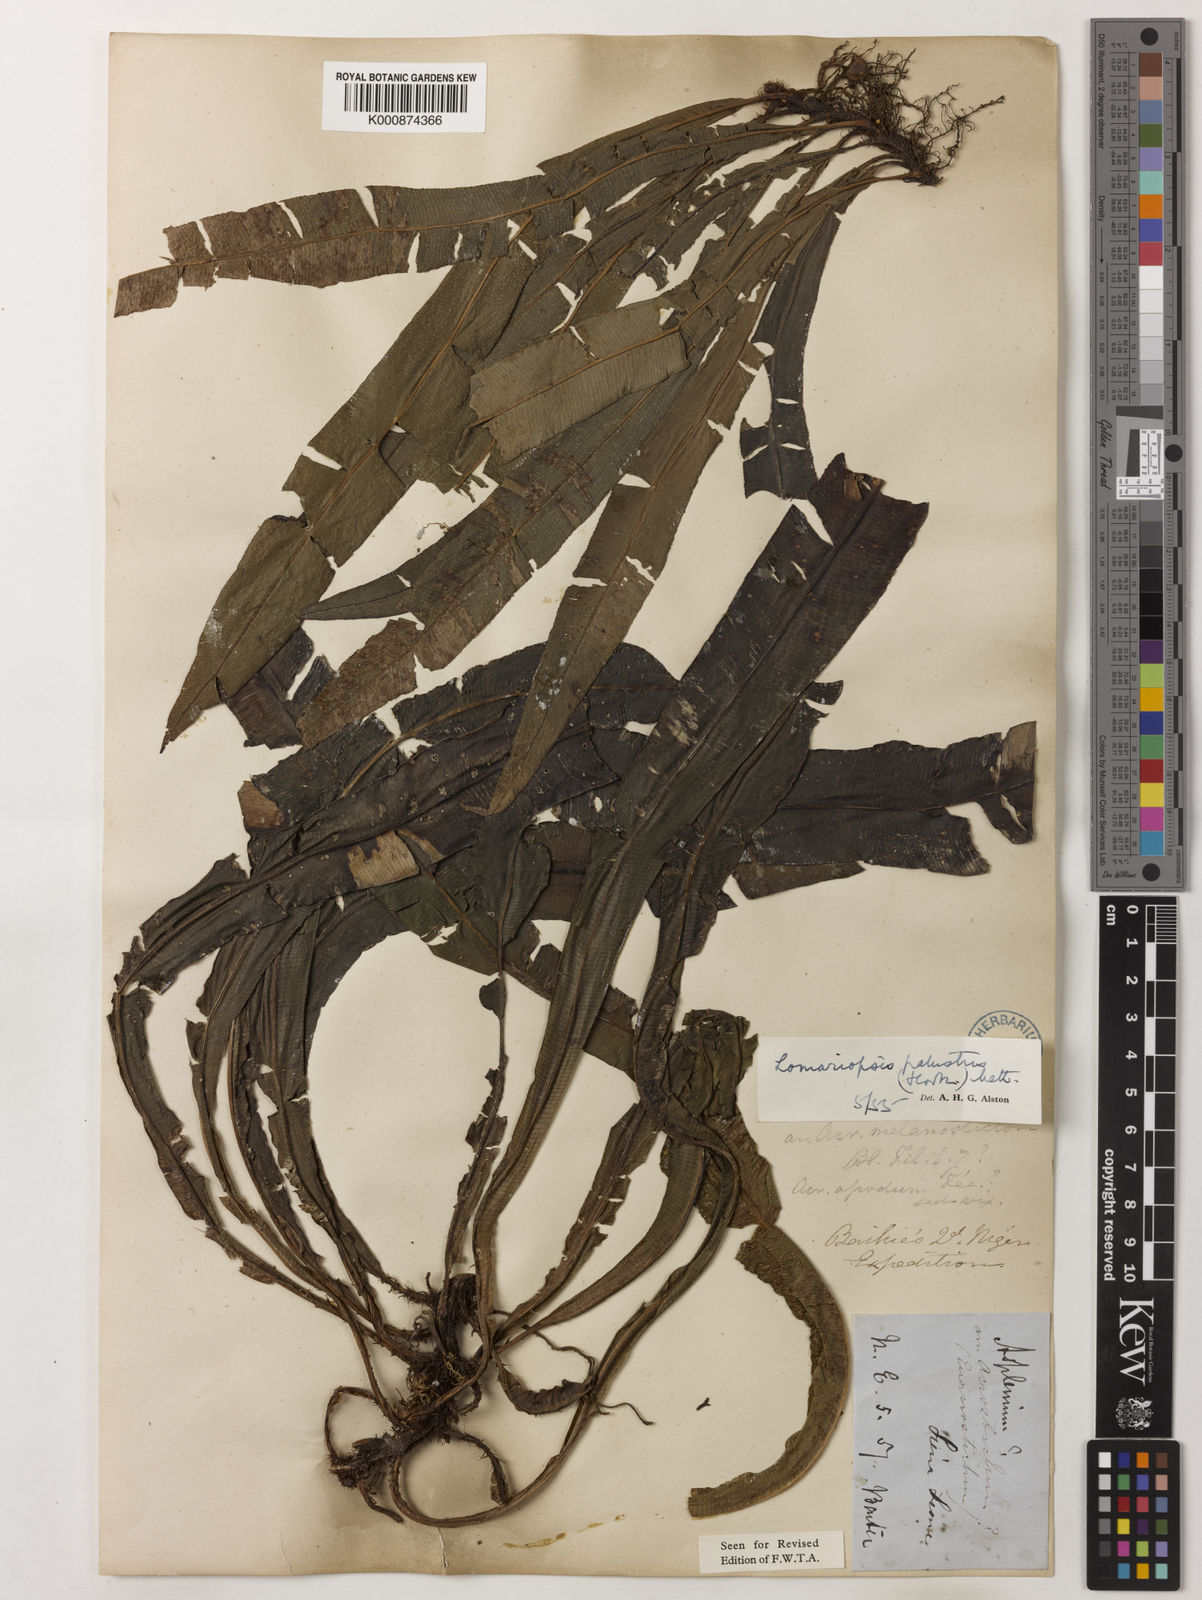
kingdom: Plantae
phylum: Tracheophyta
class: Polypodiopsida
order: Polypodiales
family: Lomariopsidaceae
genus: Lomariopsis
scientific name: Lomariopsis
